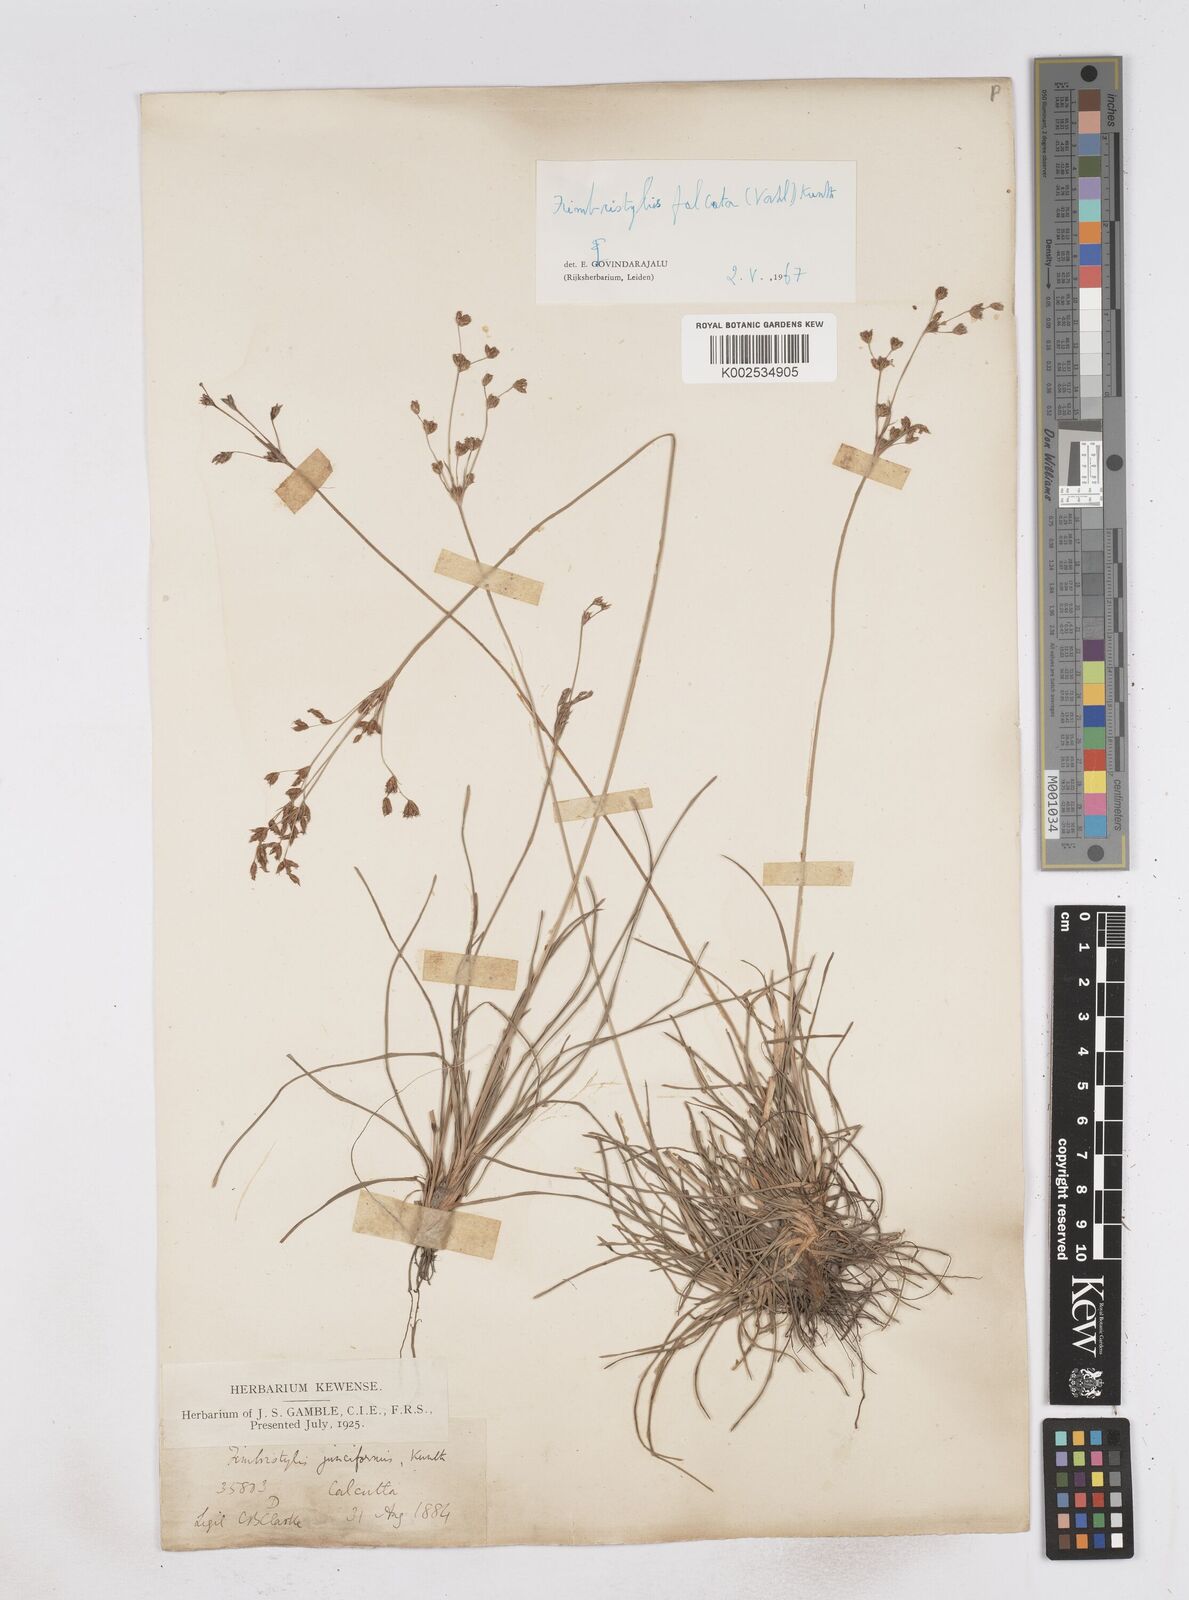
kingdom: Plantae
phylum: Tracheophyta
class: Liliopsida
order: Poales
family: Cyperaceae
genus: Fimbristylis
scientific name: Fimbristylis falcata
